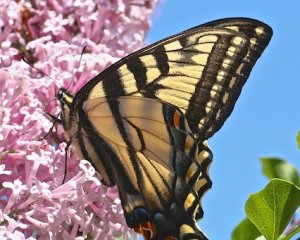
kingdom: Animalia
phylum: Arthropoda
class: Insecta
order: Lepidoptera
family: Papilionidae
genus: Pterourus
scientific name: Pterourus canadensis
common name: Canadian Tiger Swallowtail
